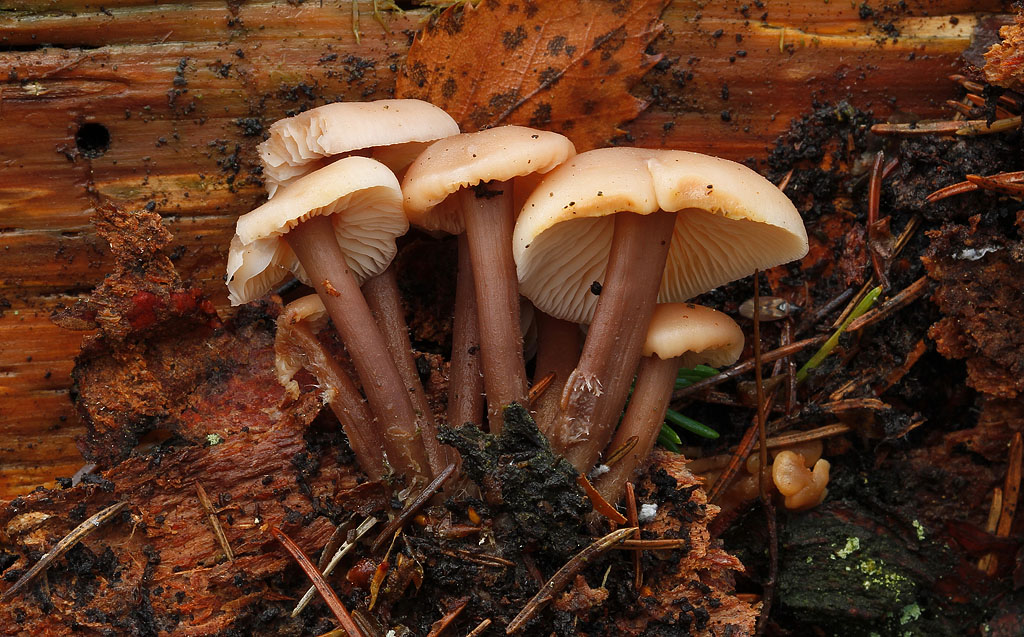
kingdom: Fungi
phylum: Basidiomycota
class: Agaricomycetes
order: Agaricales
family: Omphalotaceae
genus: Connopus
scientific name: Connopus acervatus
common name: tue-fladhat
